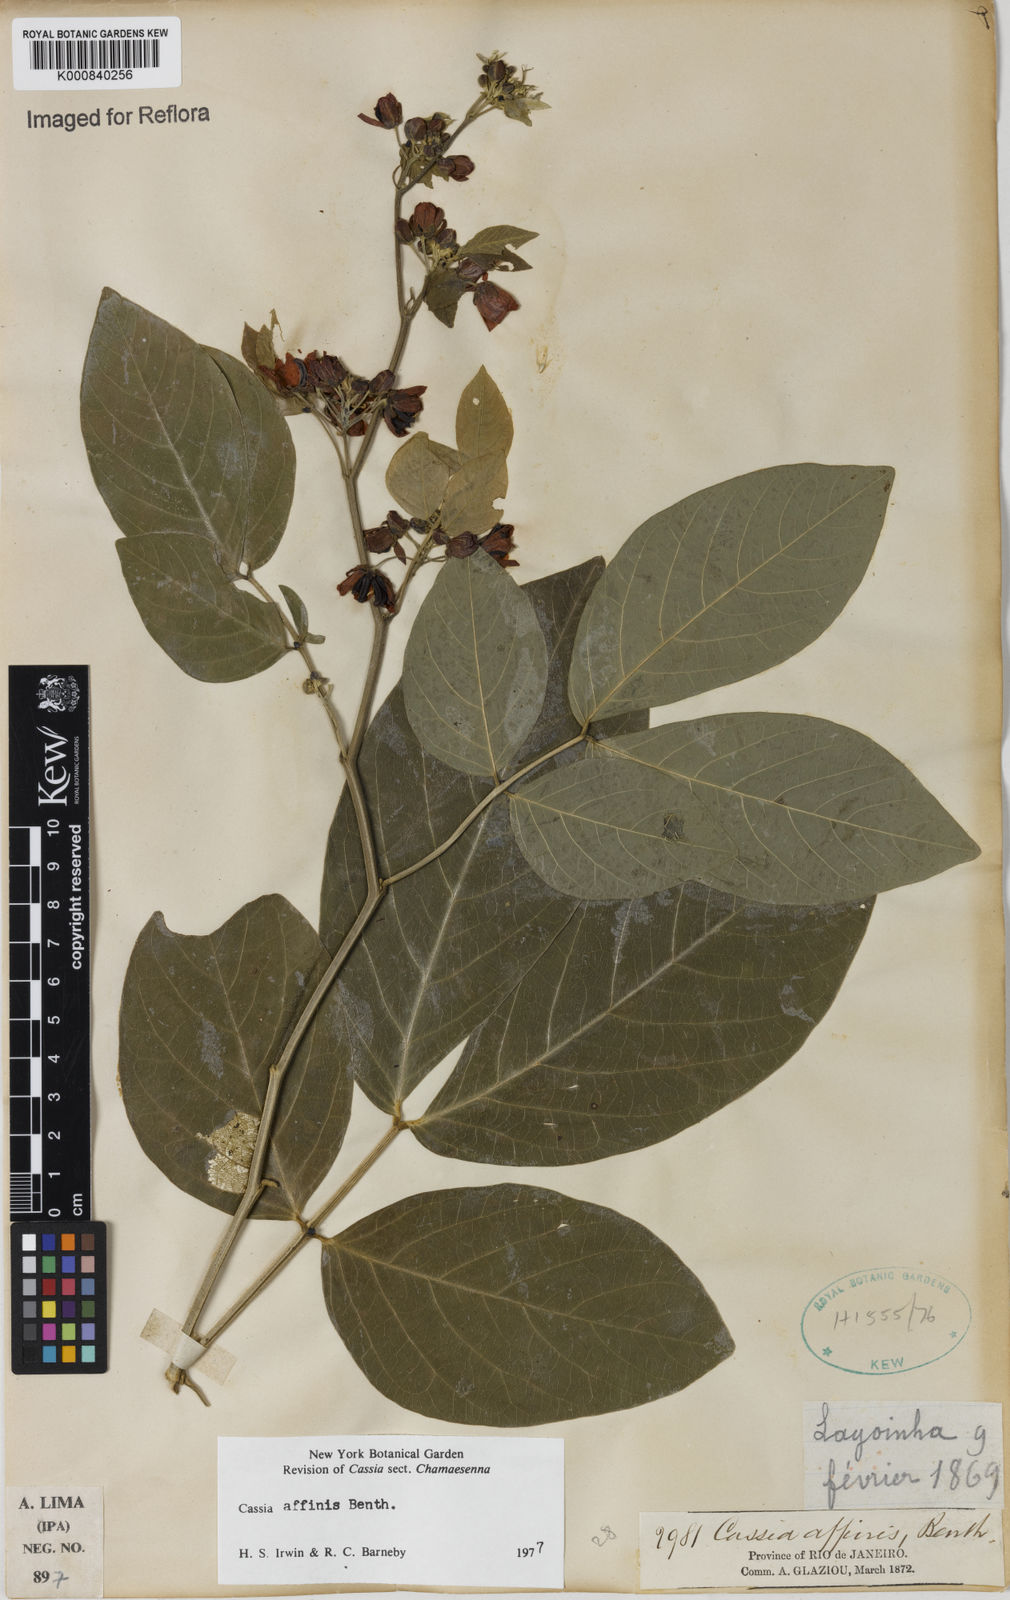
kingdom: Plantae
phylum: Tracheophyta
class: Magnoliopsida
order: Fabales
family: Fabaceae
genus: Senna
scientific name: Senna affinis
